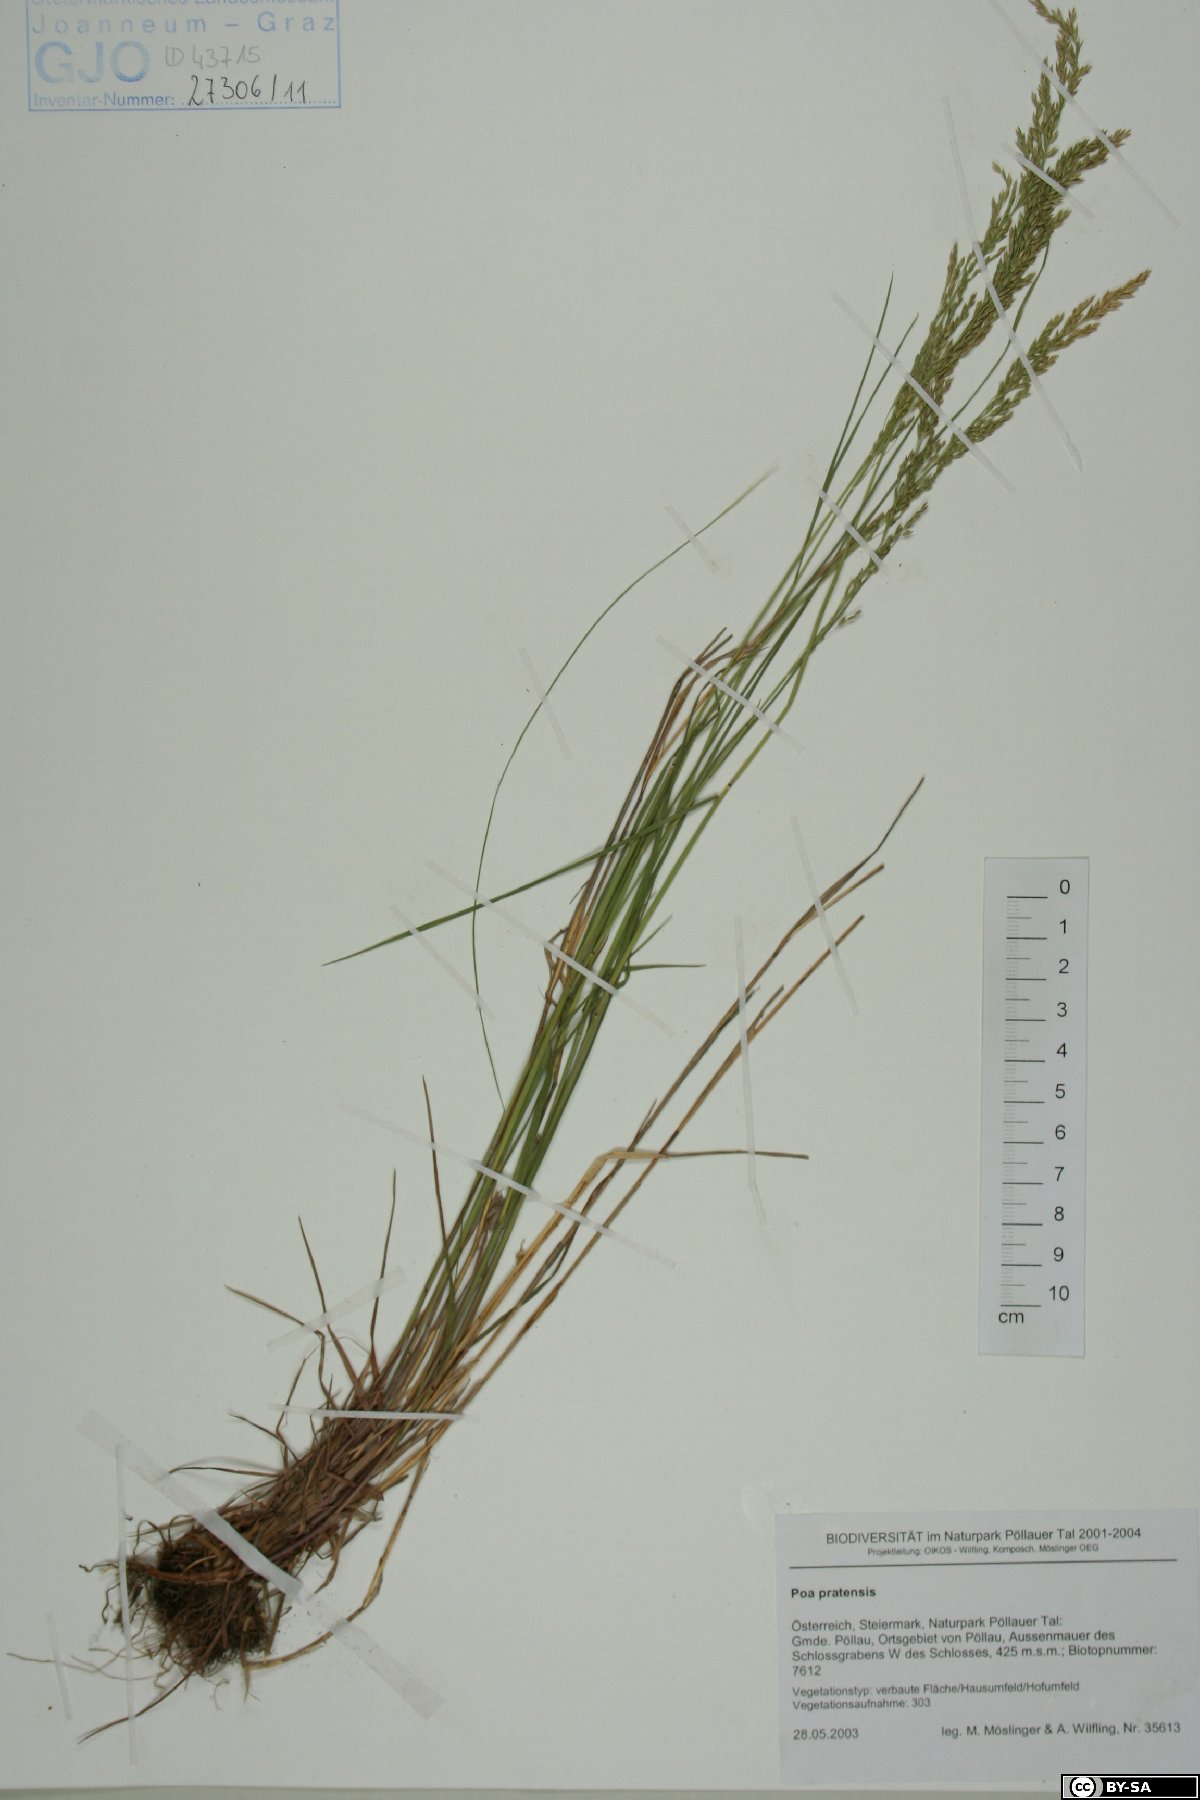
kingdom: Plantae
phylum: Tracheophyta
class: Liliopsida
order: Poales
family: Poaceae
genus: Poa
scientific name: Poa pratensis
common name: Kentucky bluegrass
